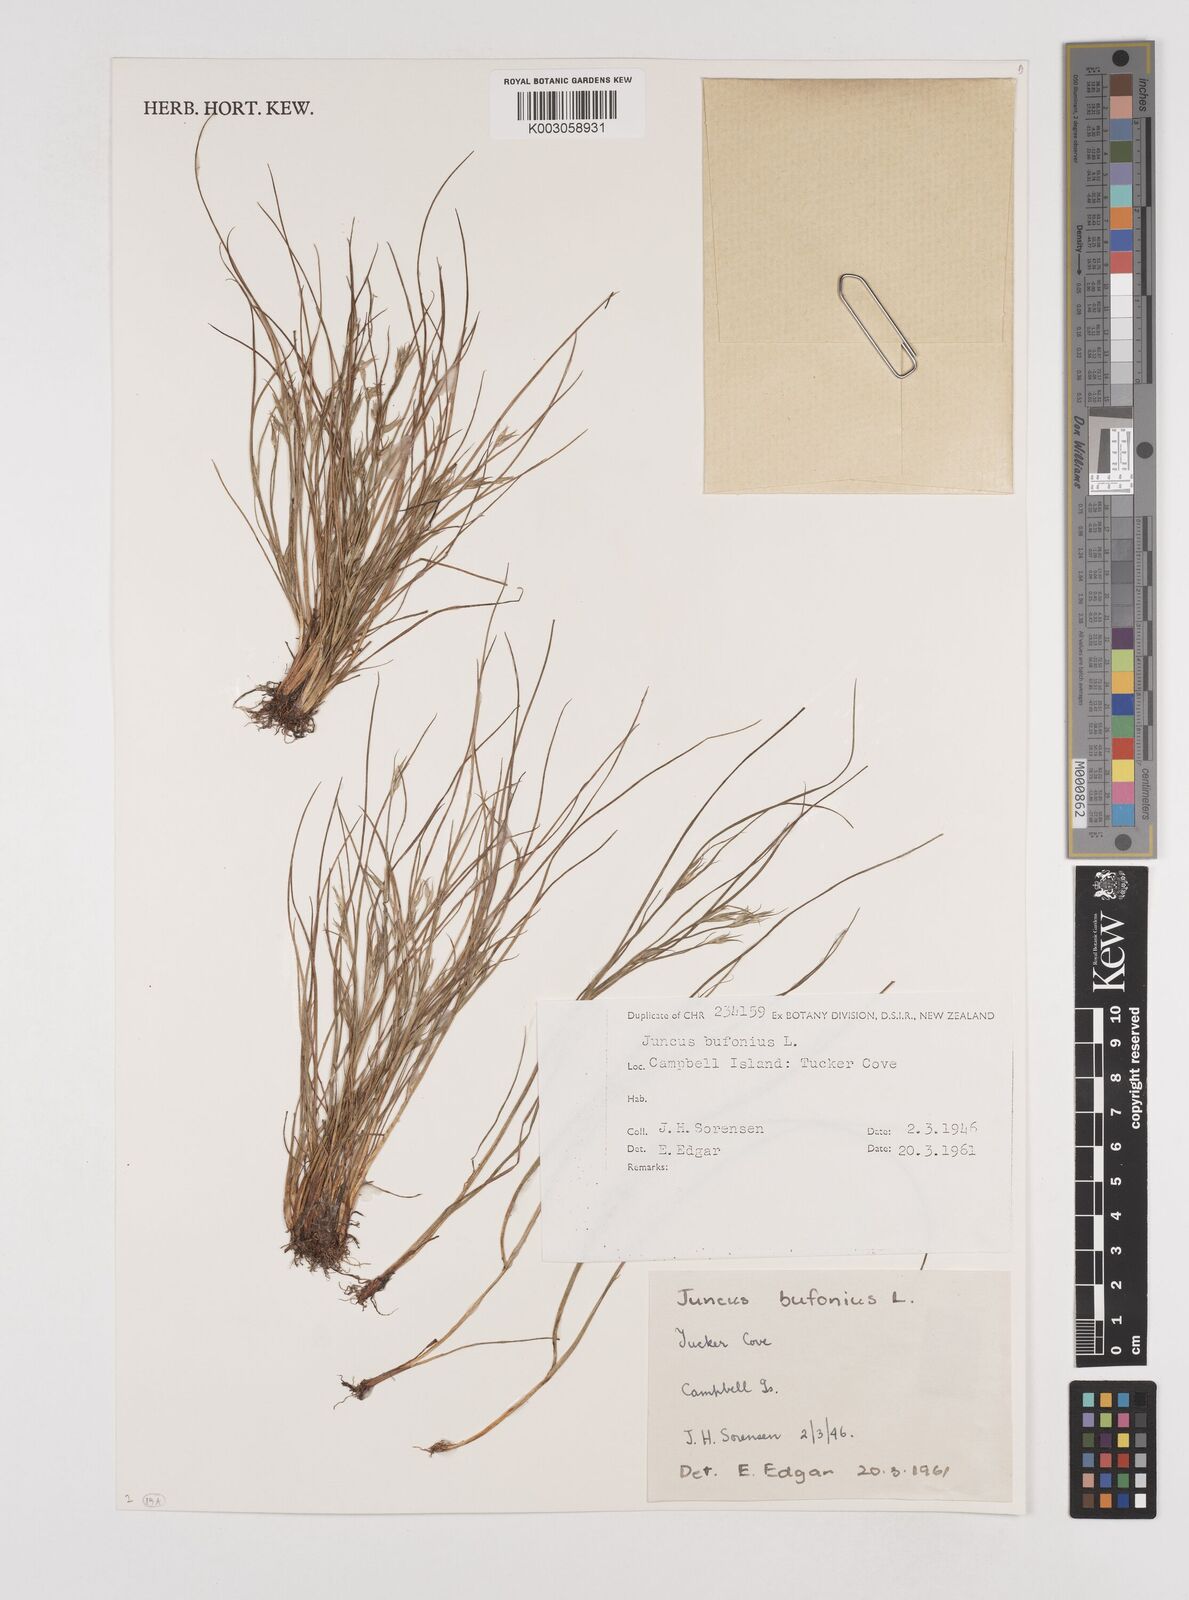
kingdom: Plantae
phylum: Tracheophyta
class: Liliopsida
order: Poales
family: Juncaceae
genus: Juncus
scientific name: Juncus bufonius
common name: Toad rush
